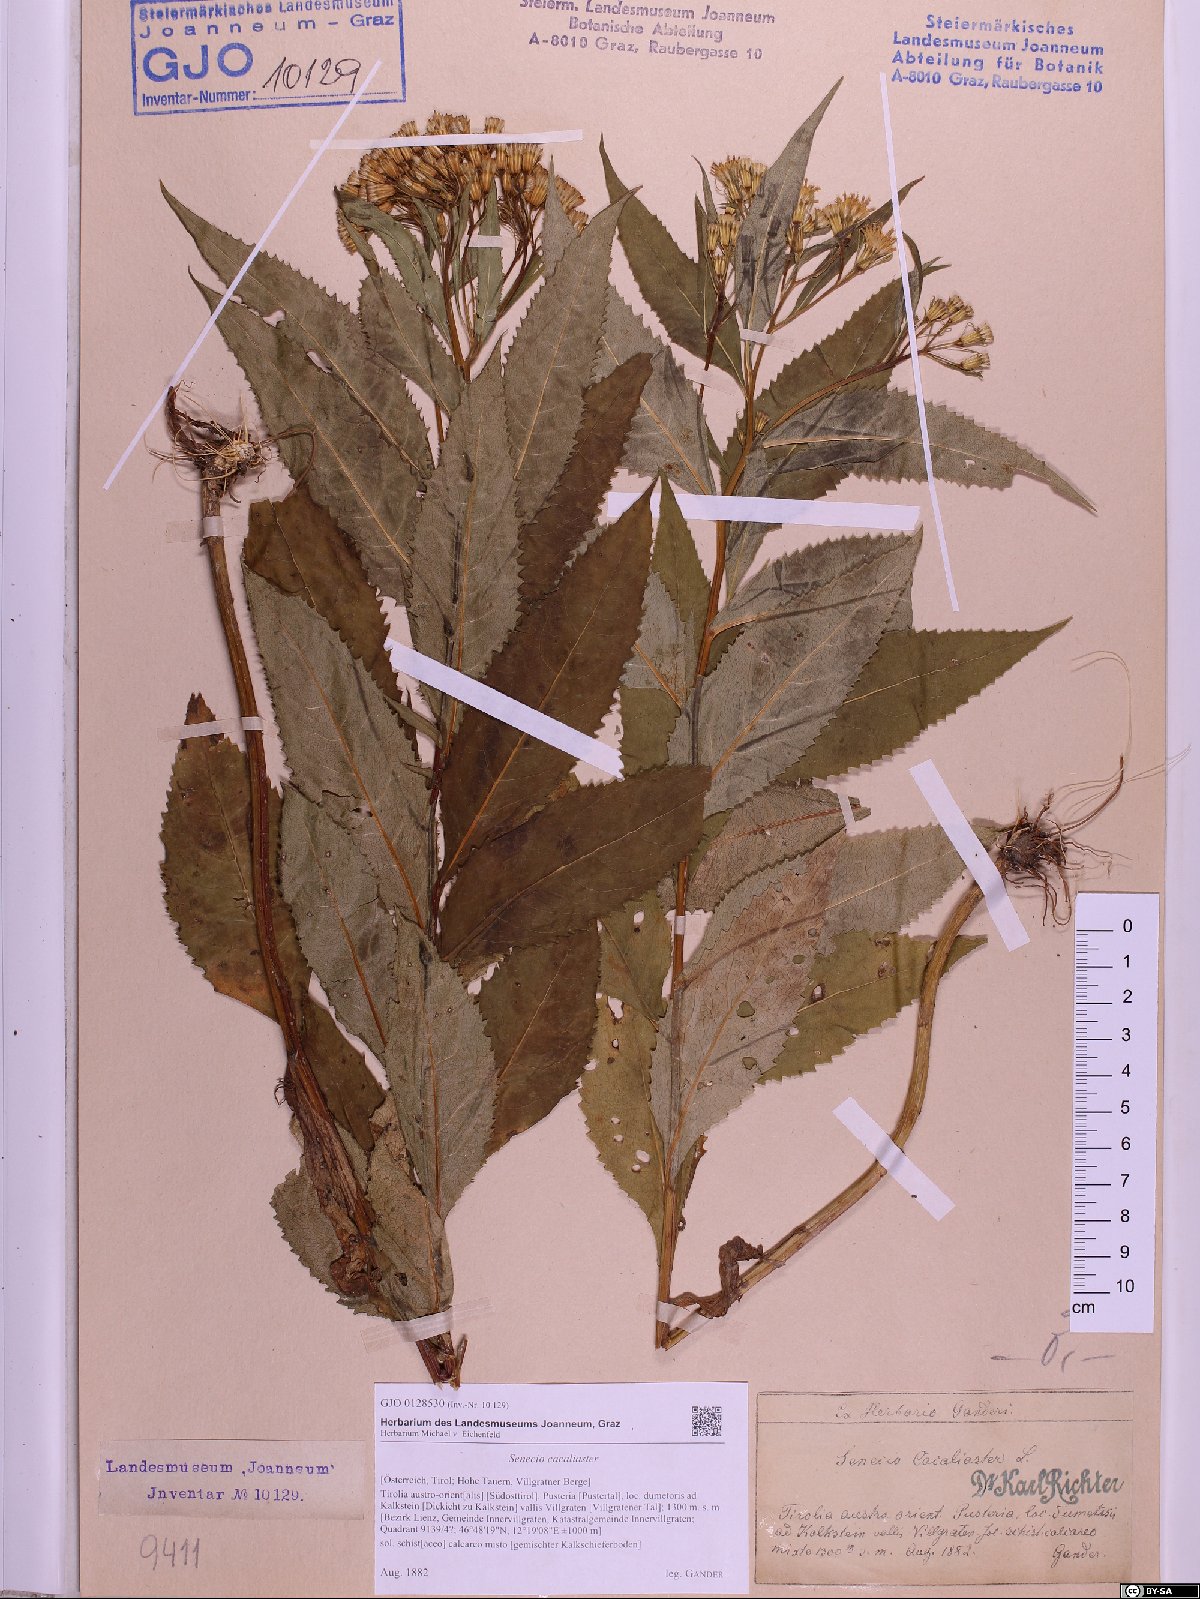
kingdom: Plantae
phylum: Tracheophyta
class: Magnoliopsida
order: Asterales
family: Asteraceae
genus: Senecio
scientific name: Senecio cacaliaster
